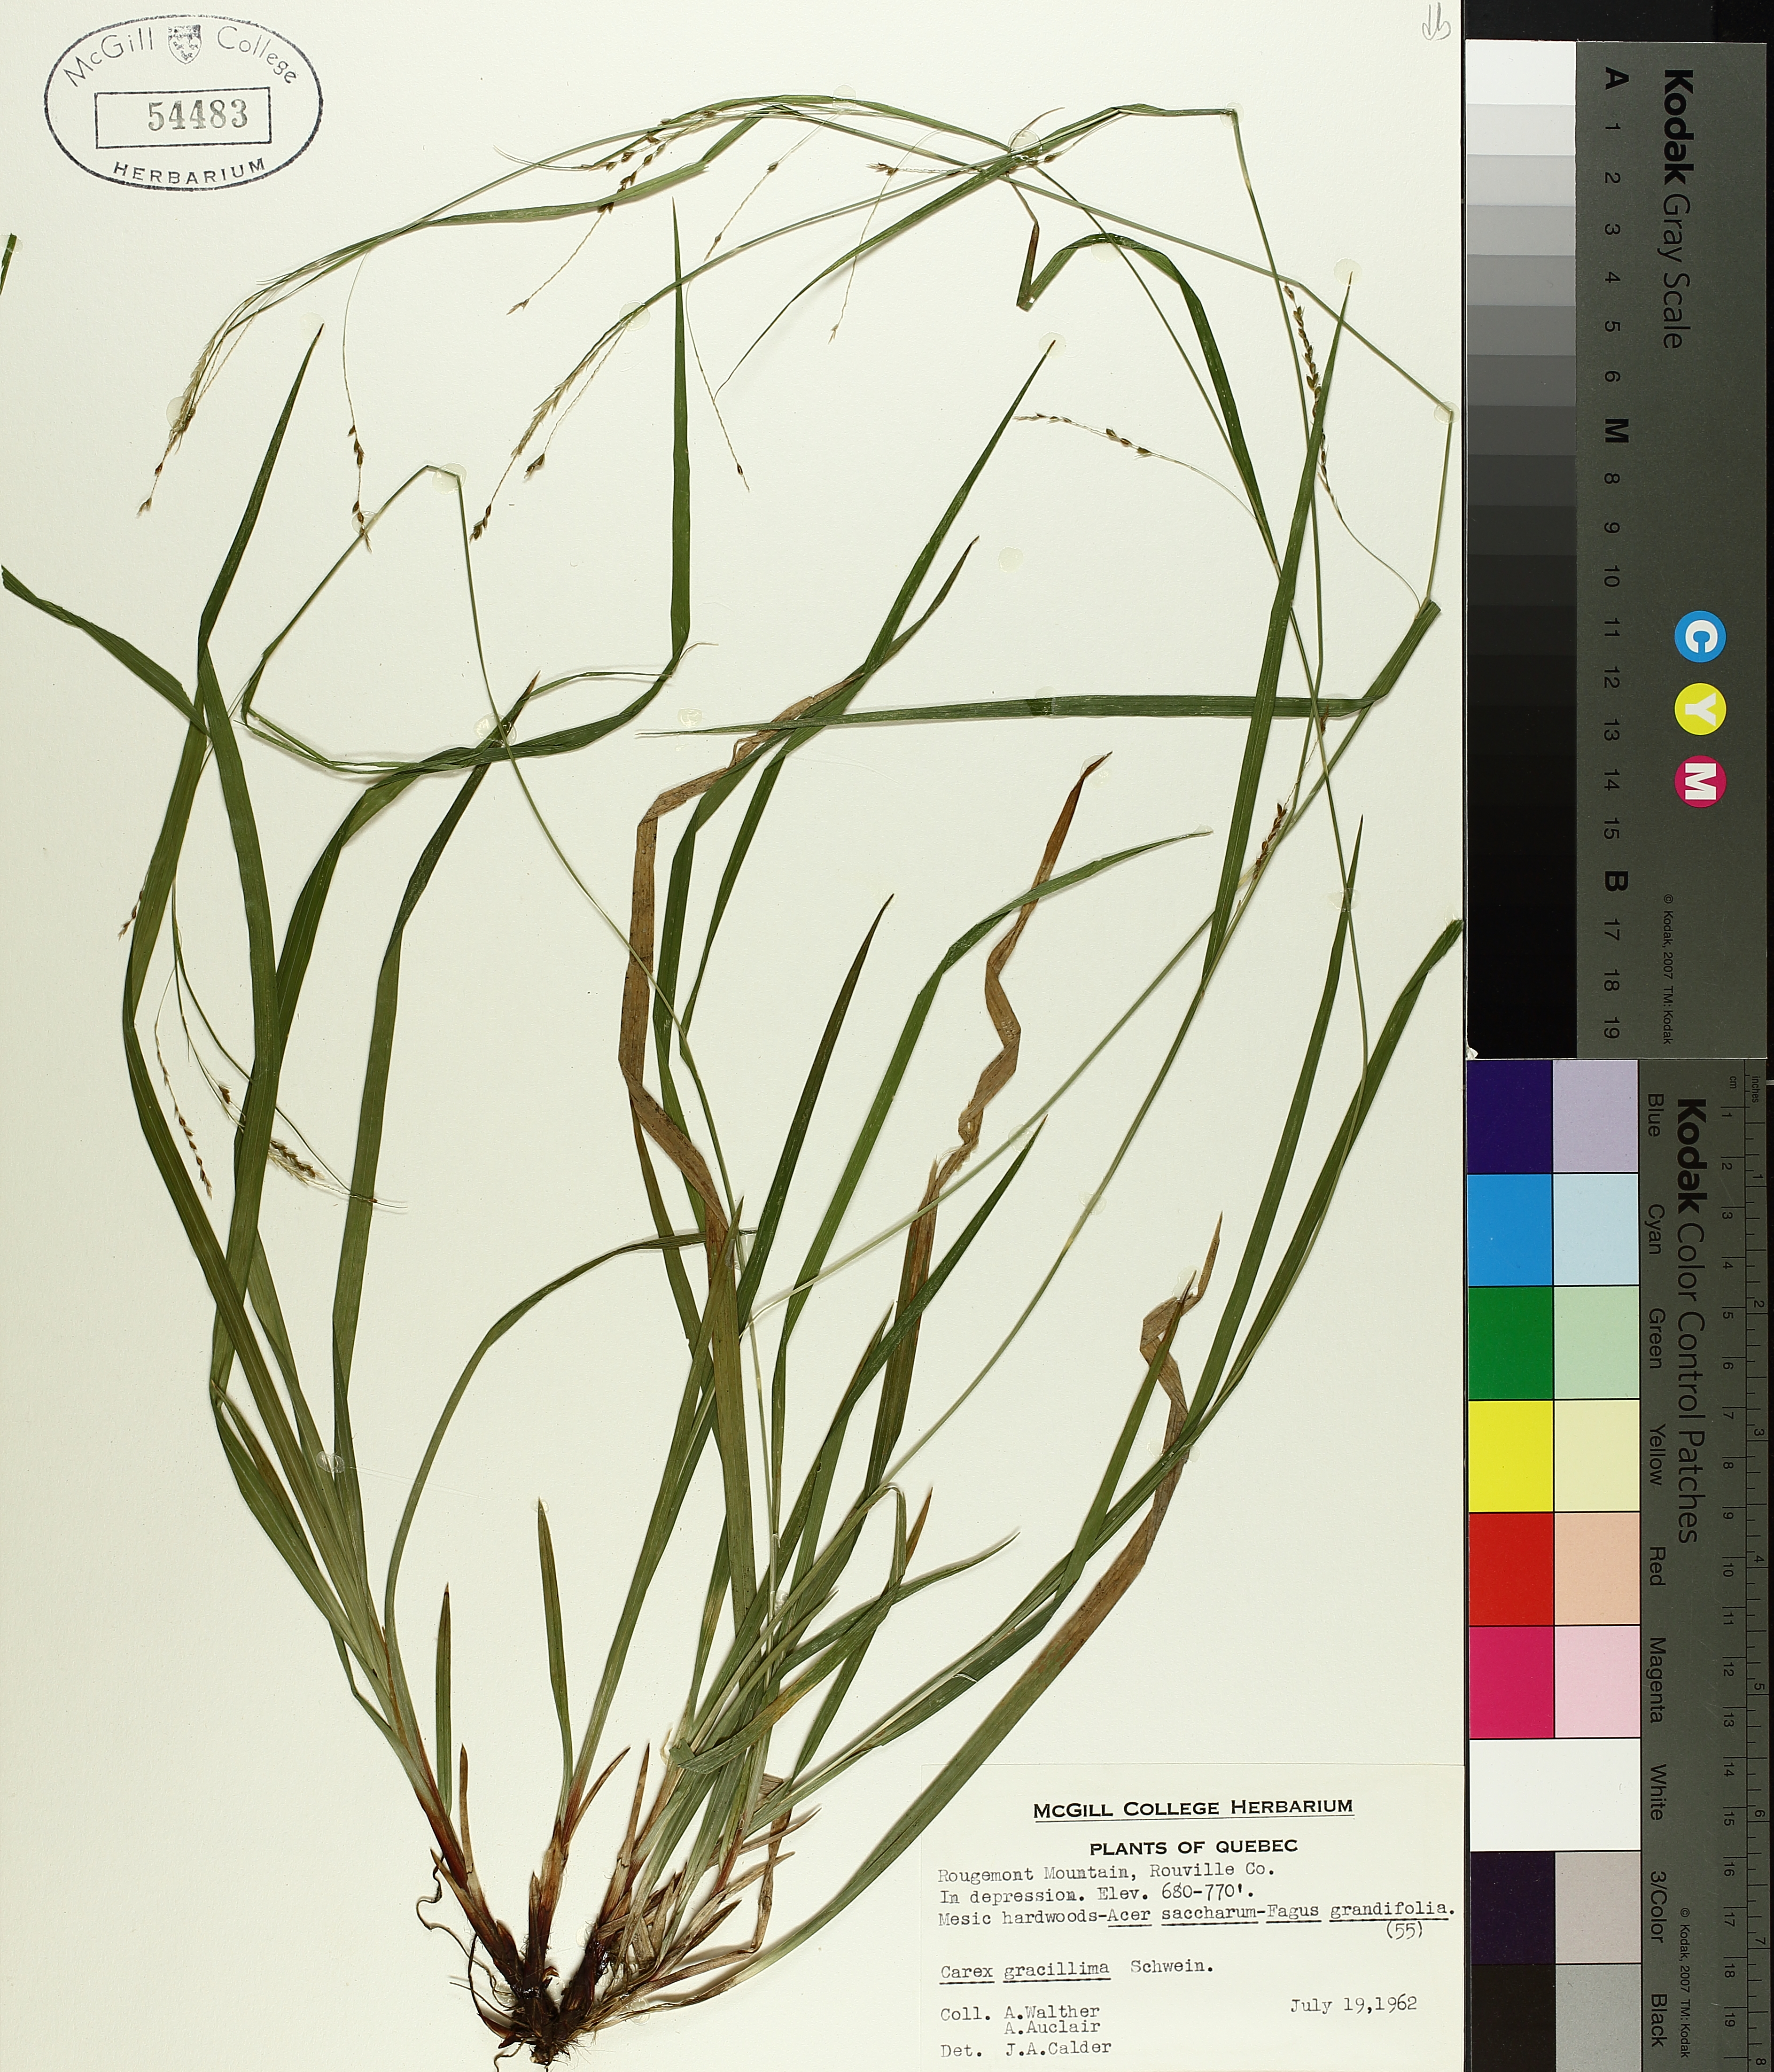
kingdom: Plantae
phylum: Tracheophyta
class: Liliopsida
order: Poales
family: Cyperaceae
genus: Carex
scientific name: Carex gracillima
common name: Graceful sedge
